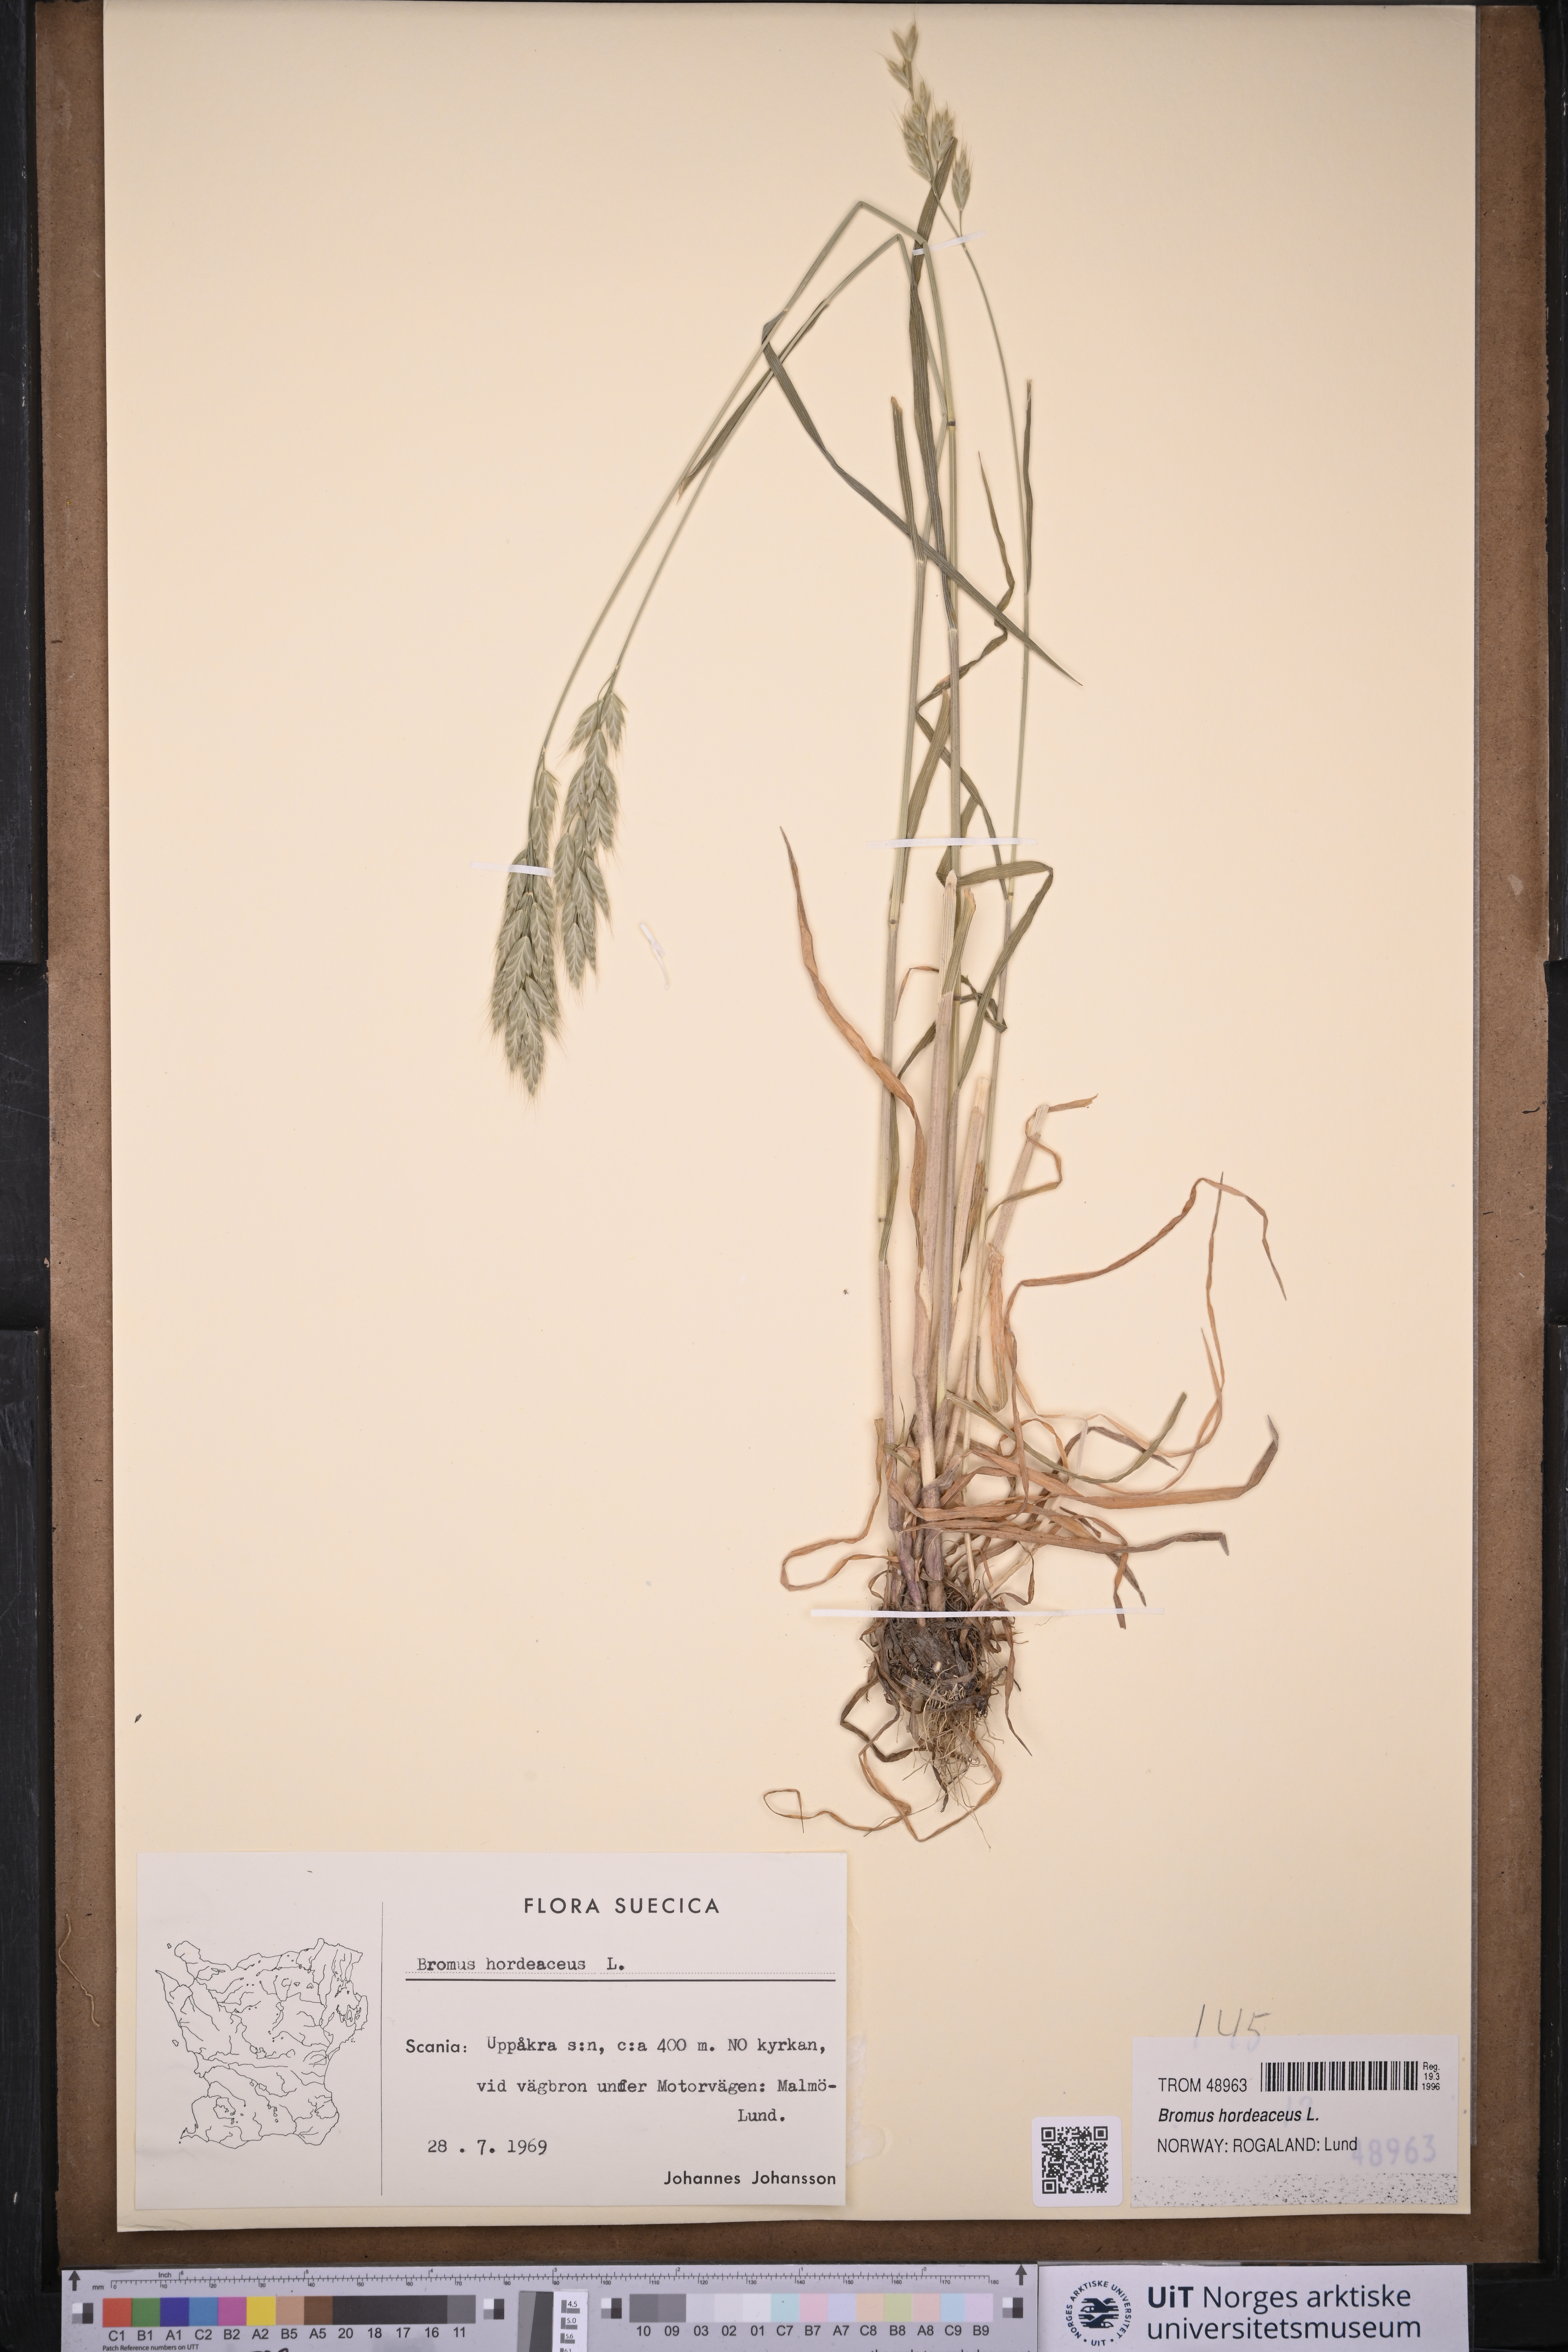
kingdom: Plantae
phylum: Tracheophyta
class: Liliopsida
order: Poales
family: Poaceae
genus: Bromus
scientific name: Bromus hordeaceus
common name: Soft brome
